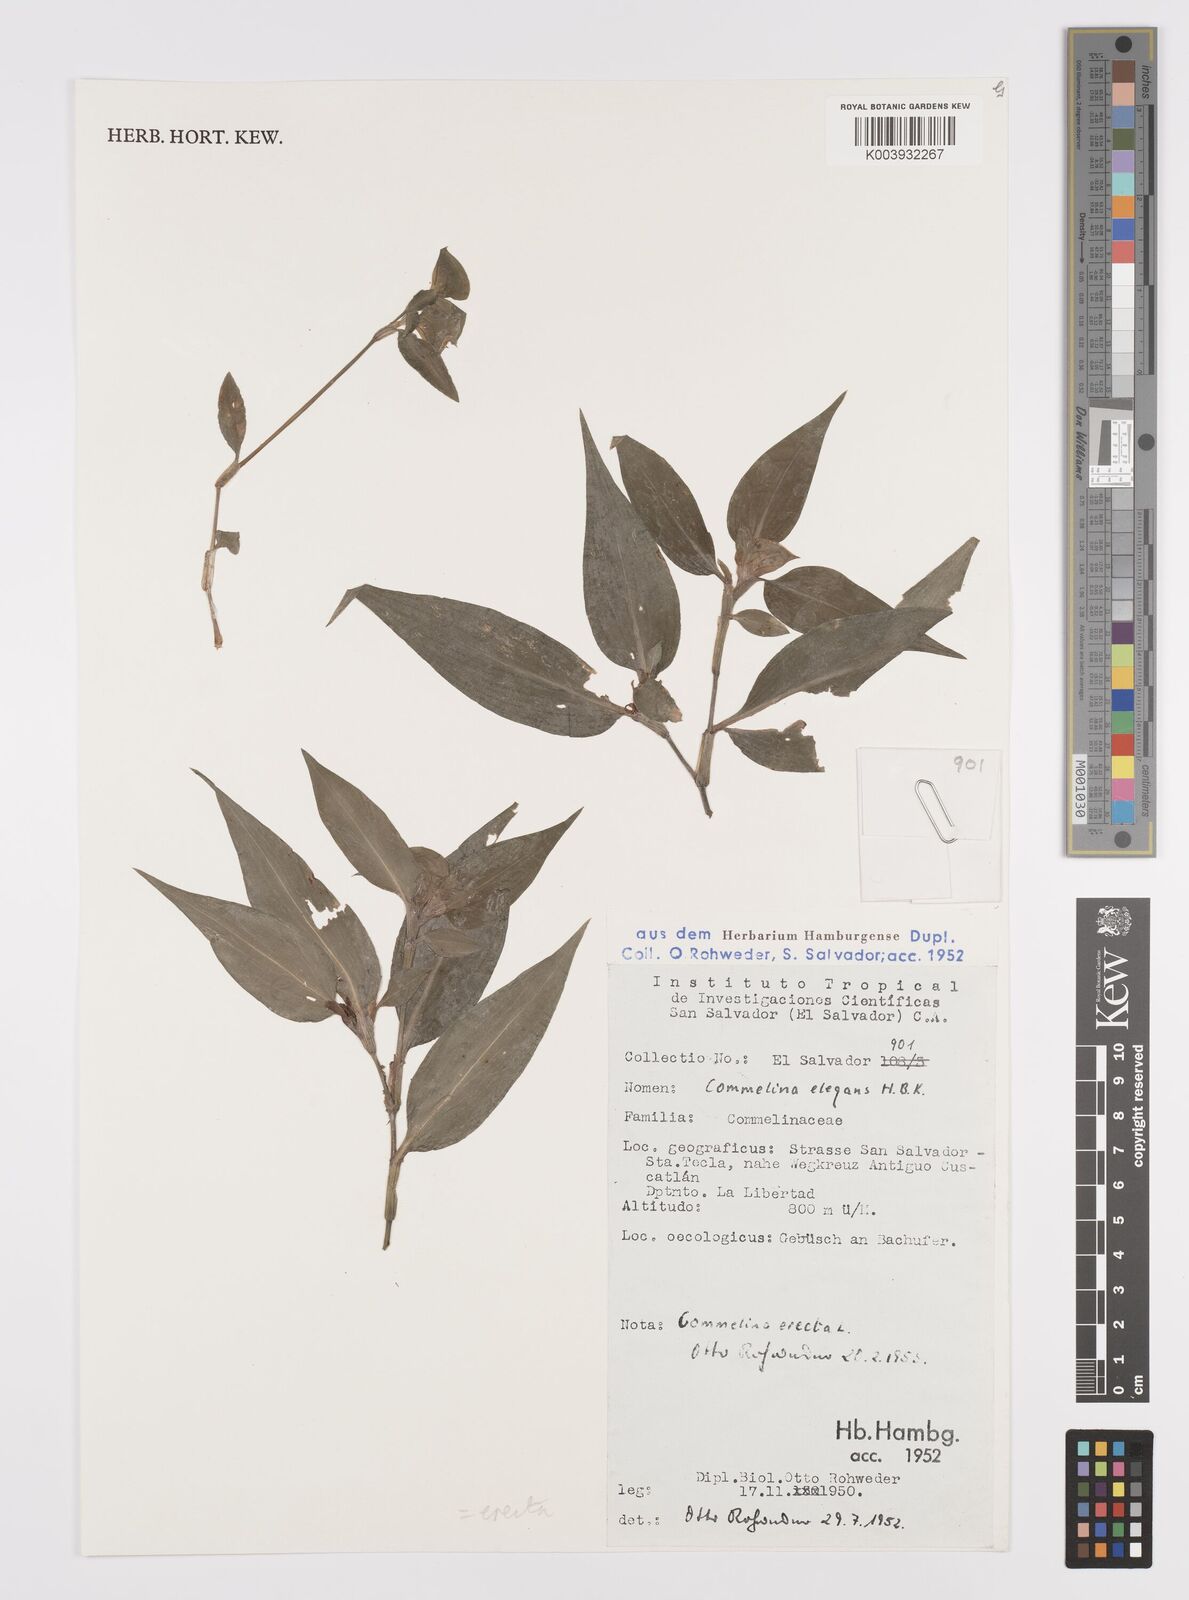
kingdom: Plantae
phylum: Tracheophyta
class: Liliopsida
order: Commelinales
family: Commelinaceae
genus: Commelina
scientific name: Commelina erecta
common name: Blousel blommetjie
